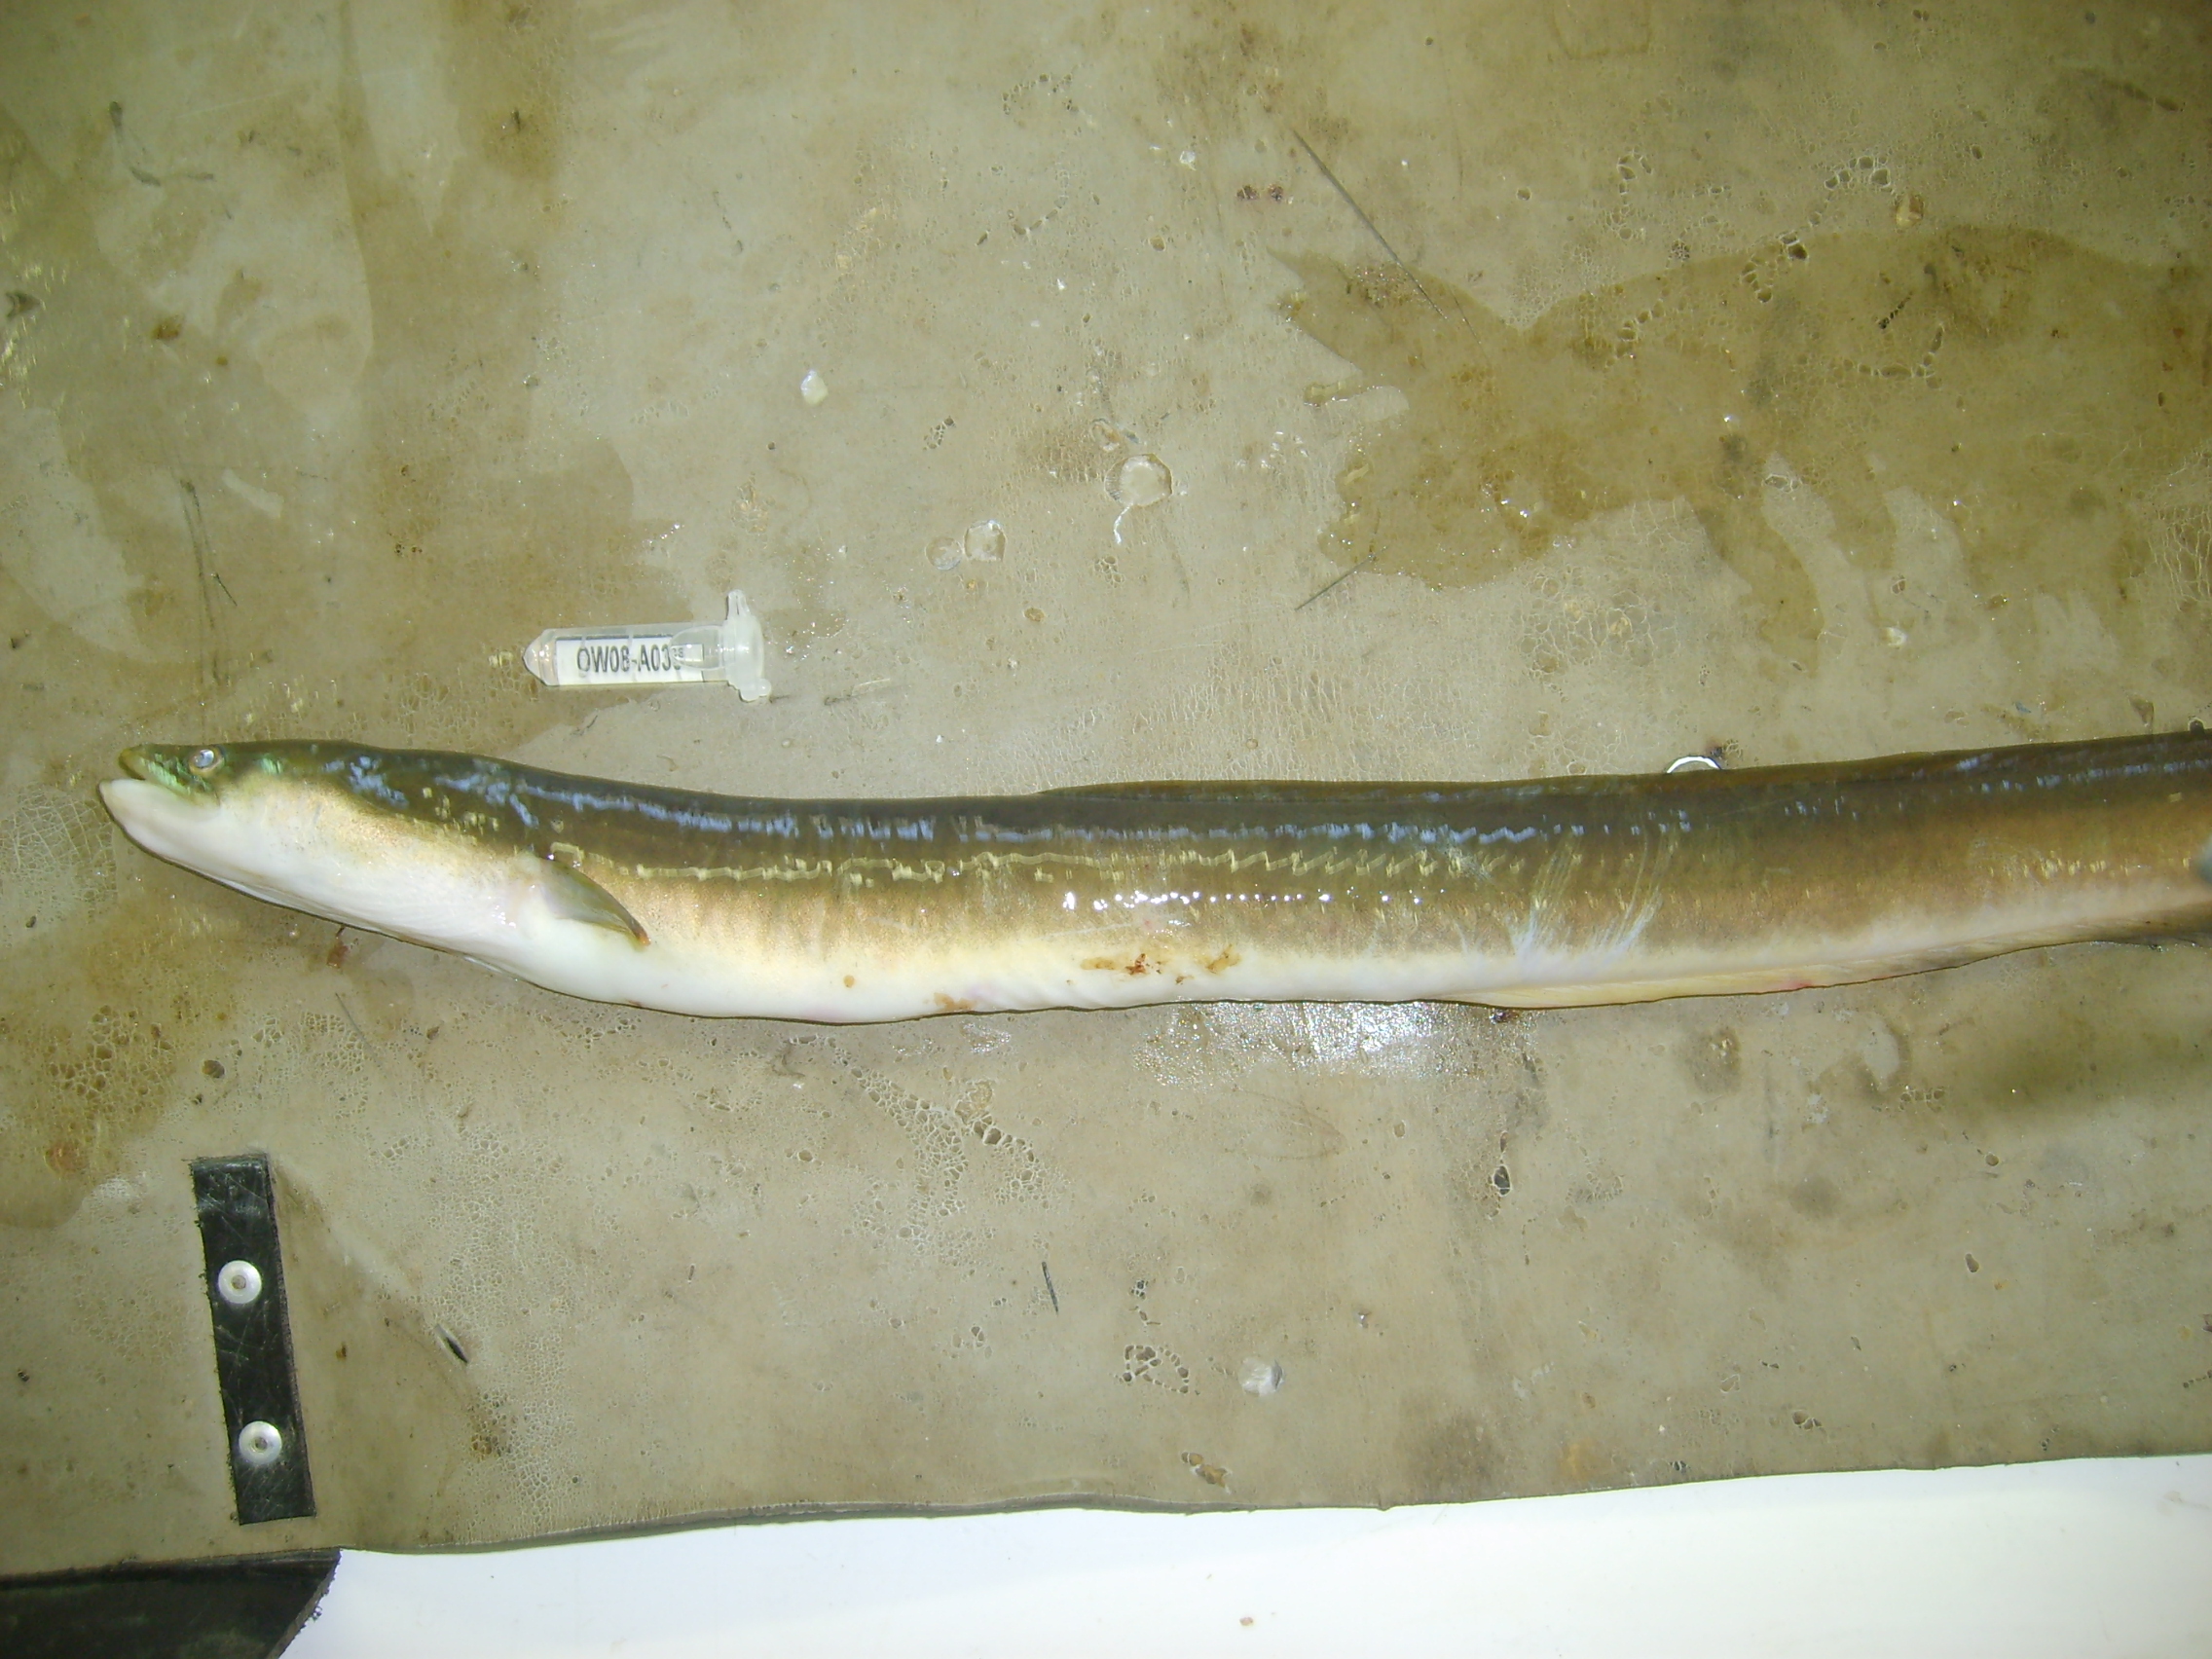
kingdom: Animalia
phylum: Chordata
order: Anguilliformes
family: Anguillidae
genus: Anguilla
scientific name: Anguilla mossambica
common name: African longfin eel
